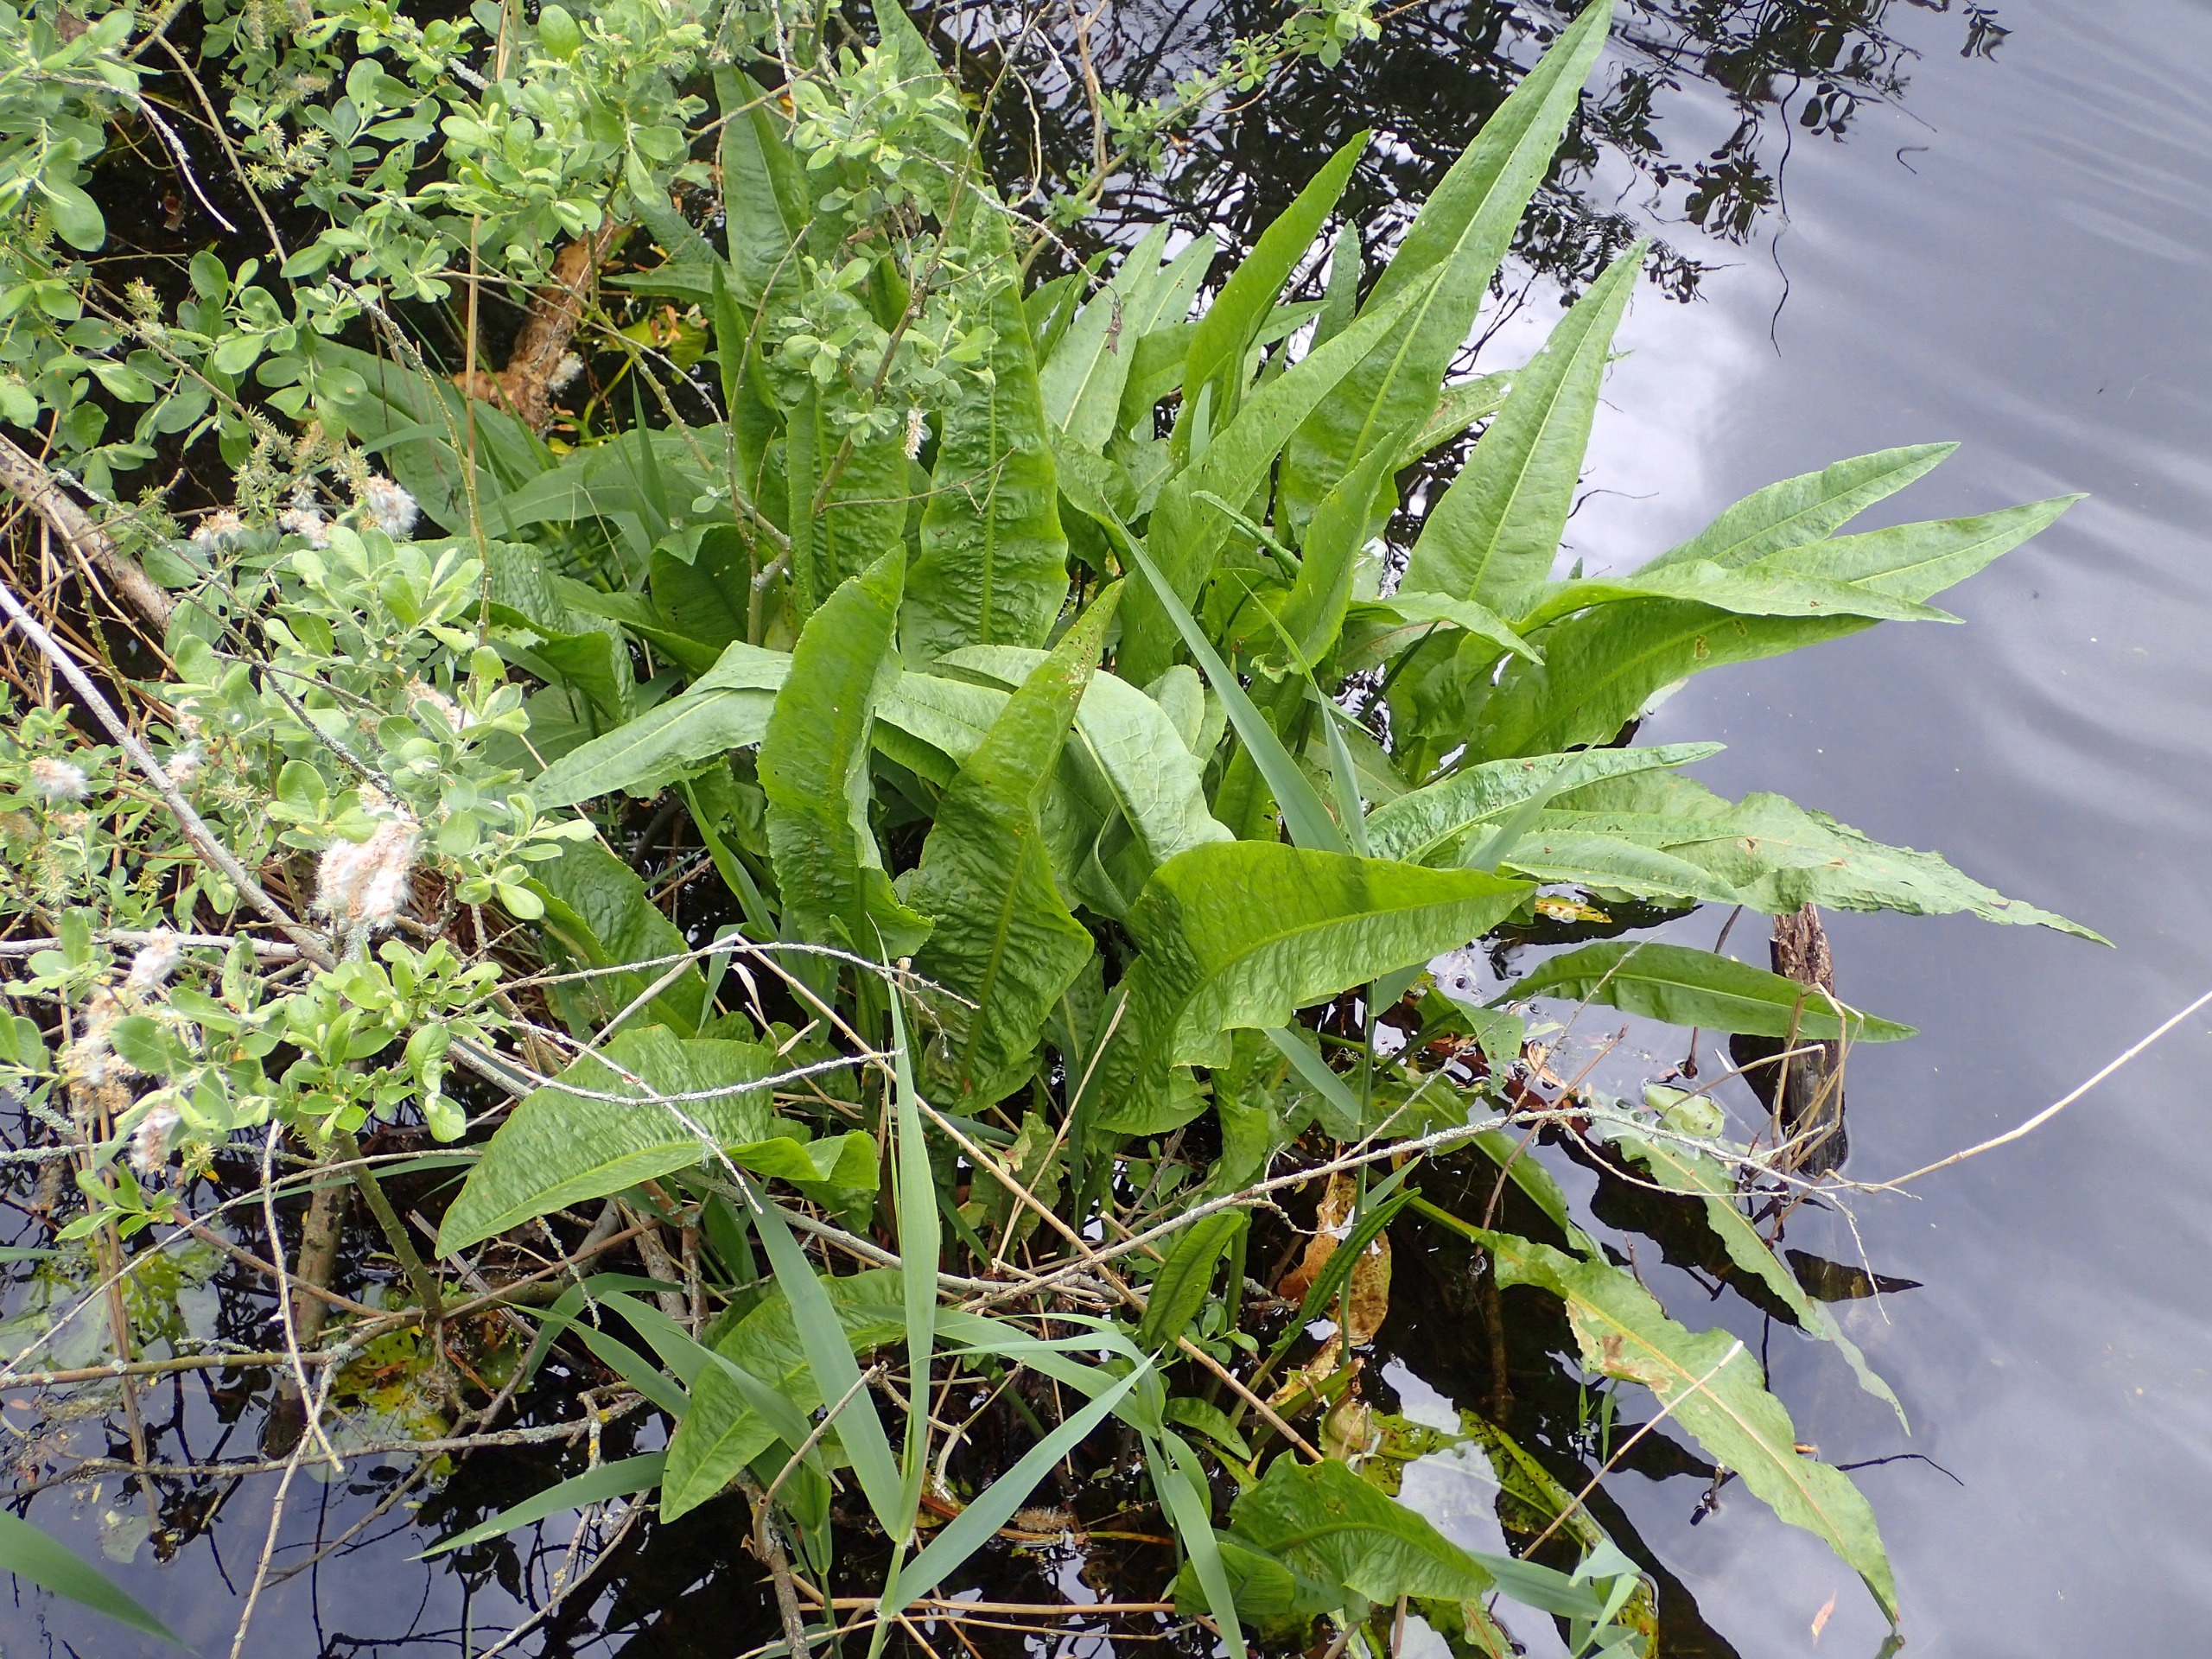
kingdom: Plantae
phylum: Tracheophyta
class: Magnoliopsida
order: Caryophyllales
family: Polygonaceae
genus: Rumex
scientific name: Rumex hydrolapathum
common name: Vand-skræppe
